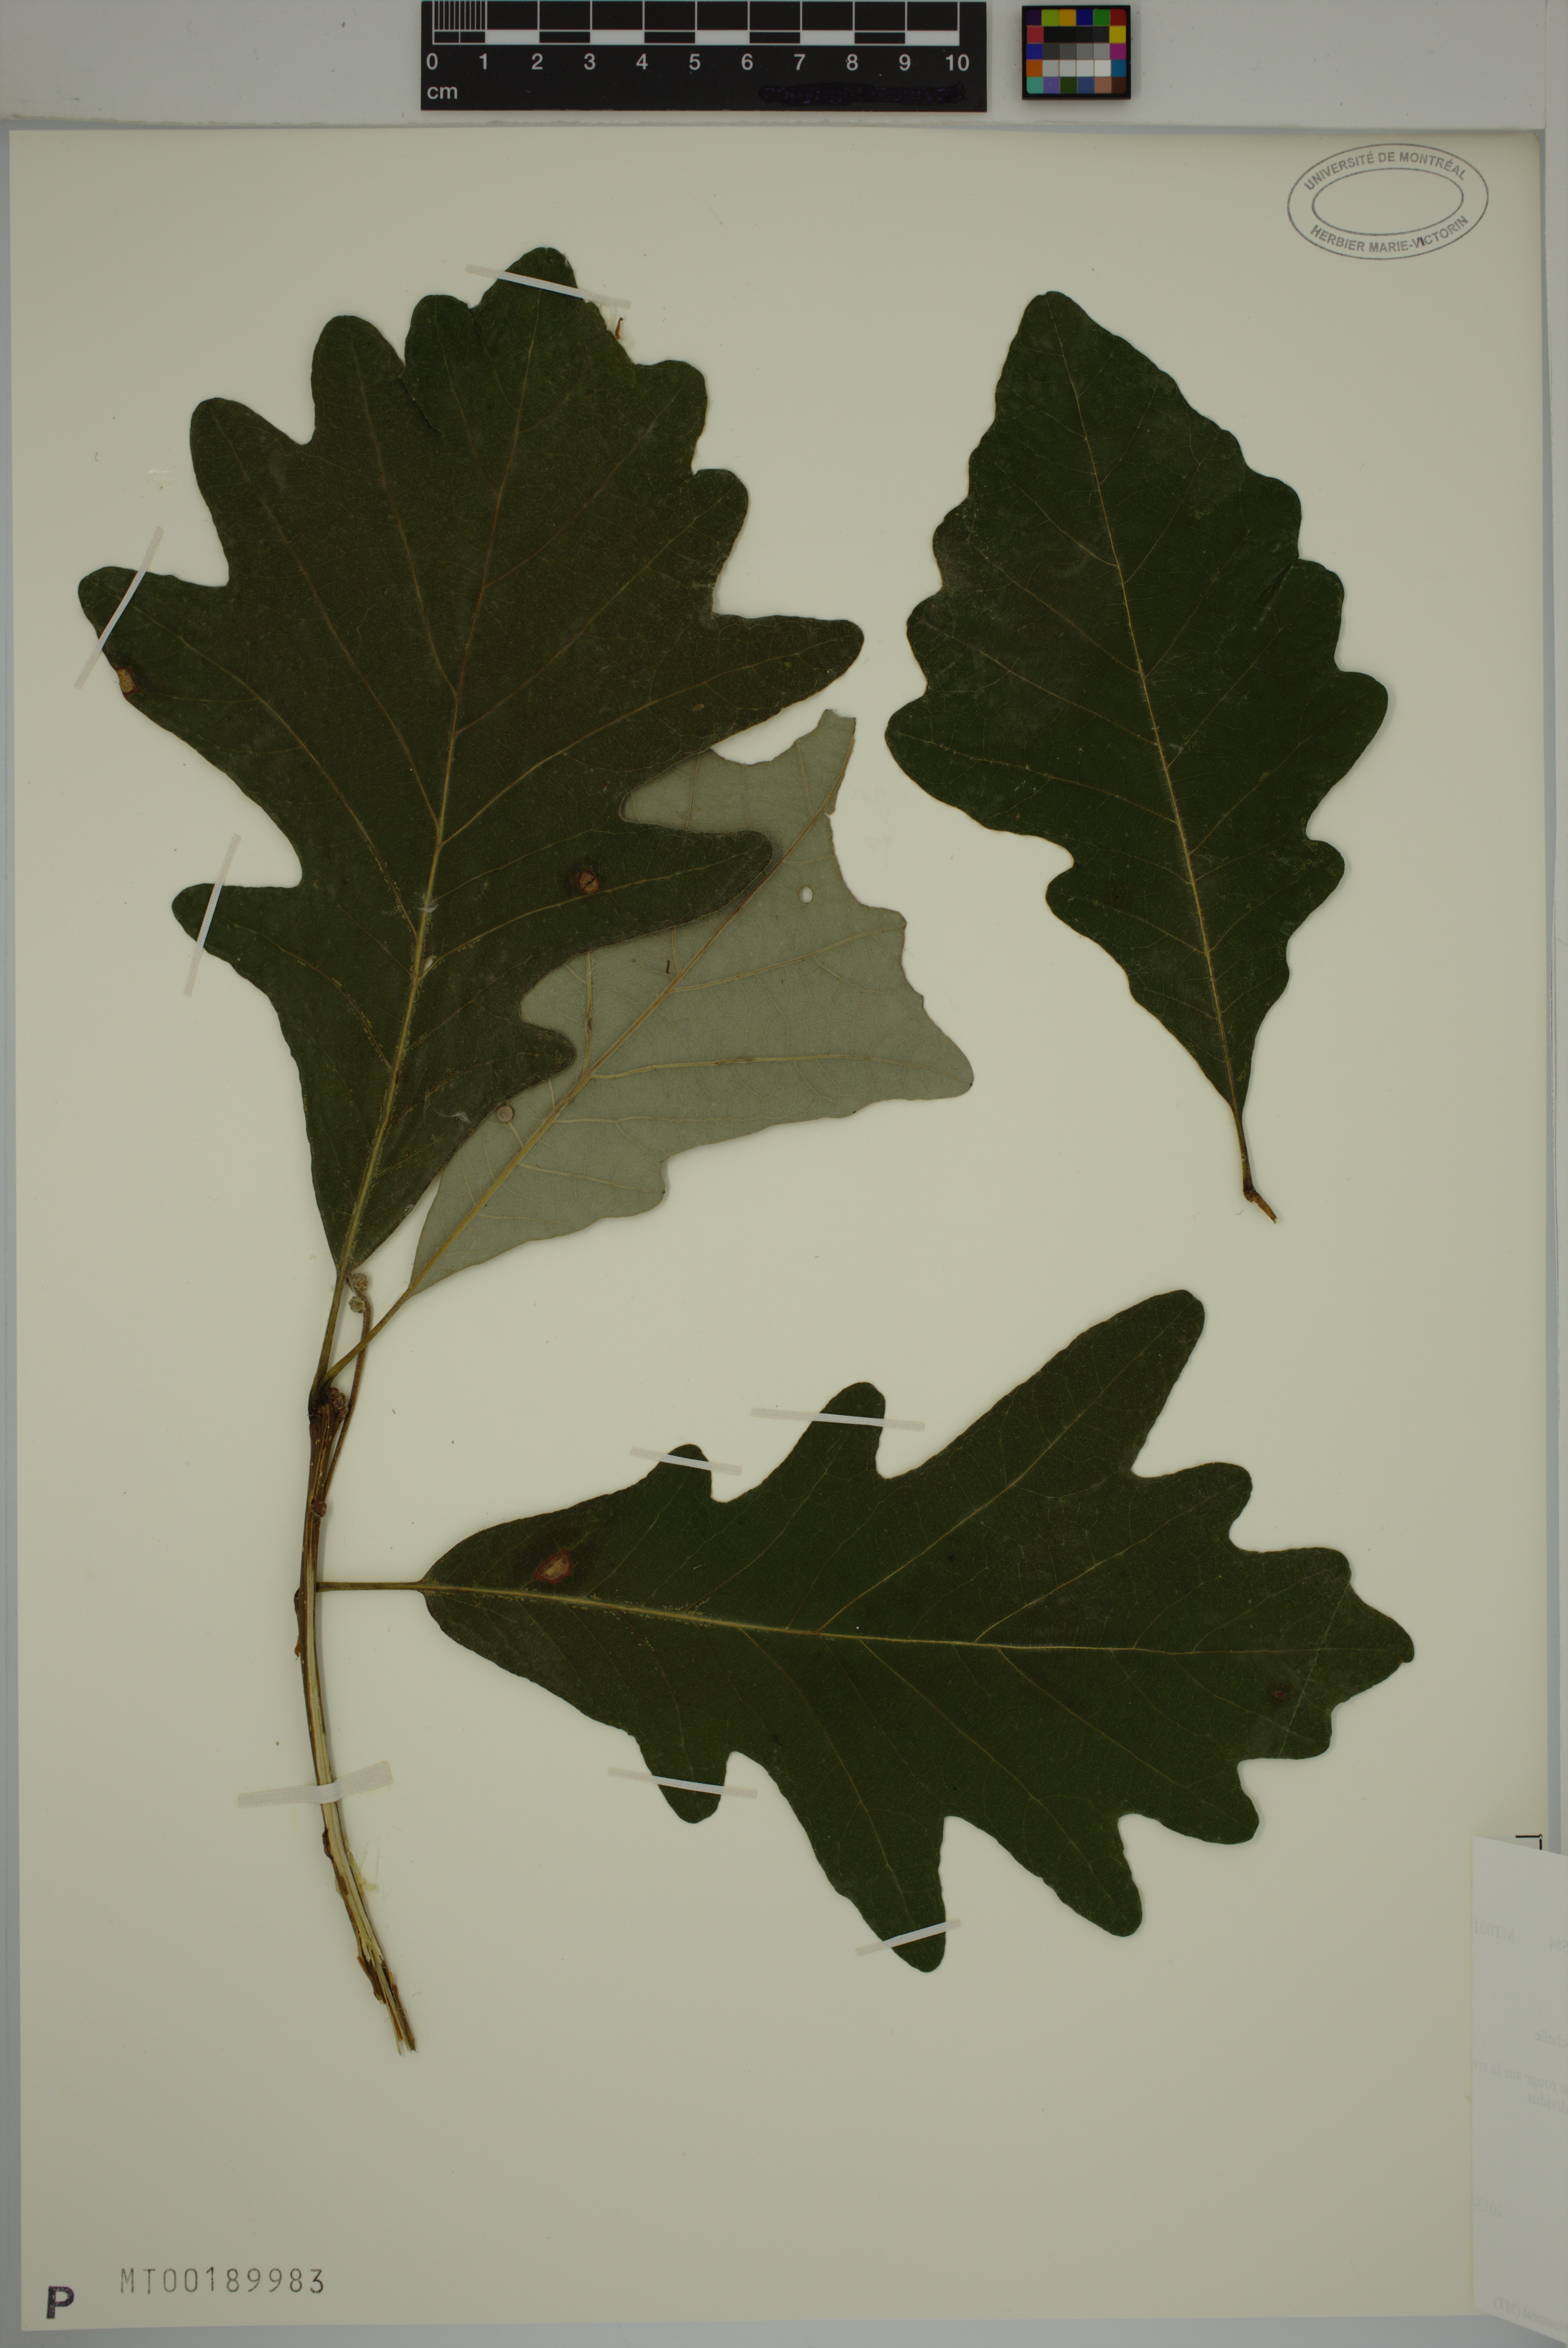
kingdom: Plantae
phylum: Tracheophyta
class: Magnoliopsida
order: Fagales
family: Fagaceae
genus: Quercus
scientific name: Quercus bicolor
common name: Swamp white oak
